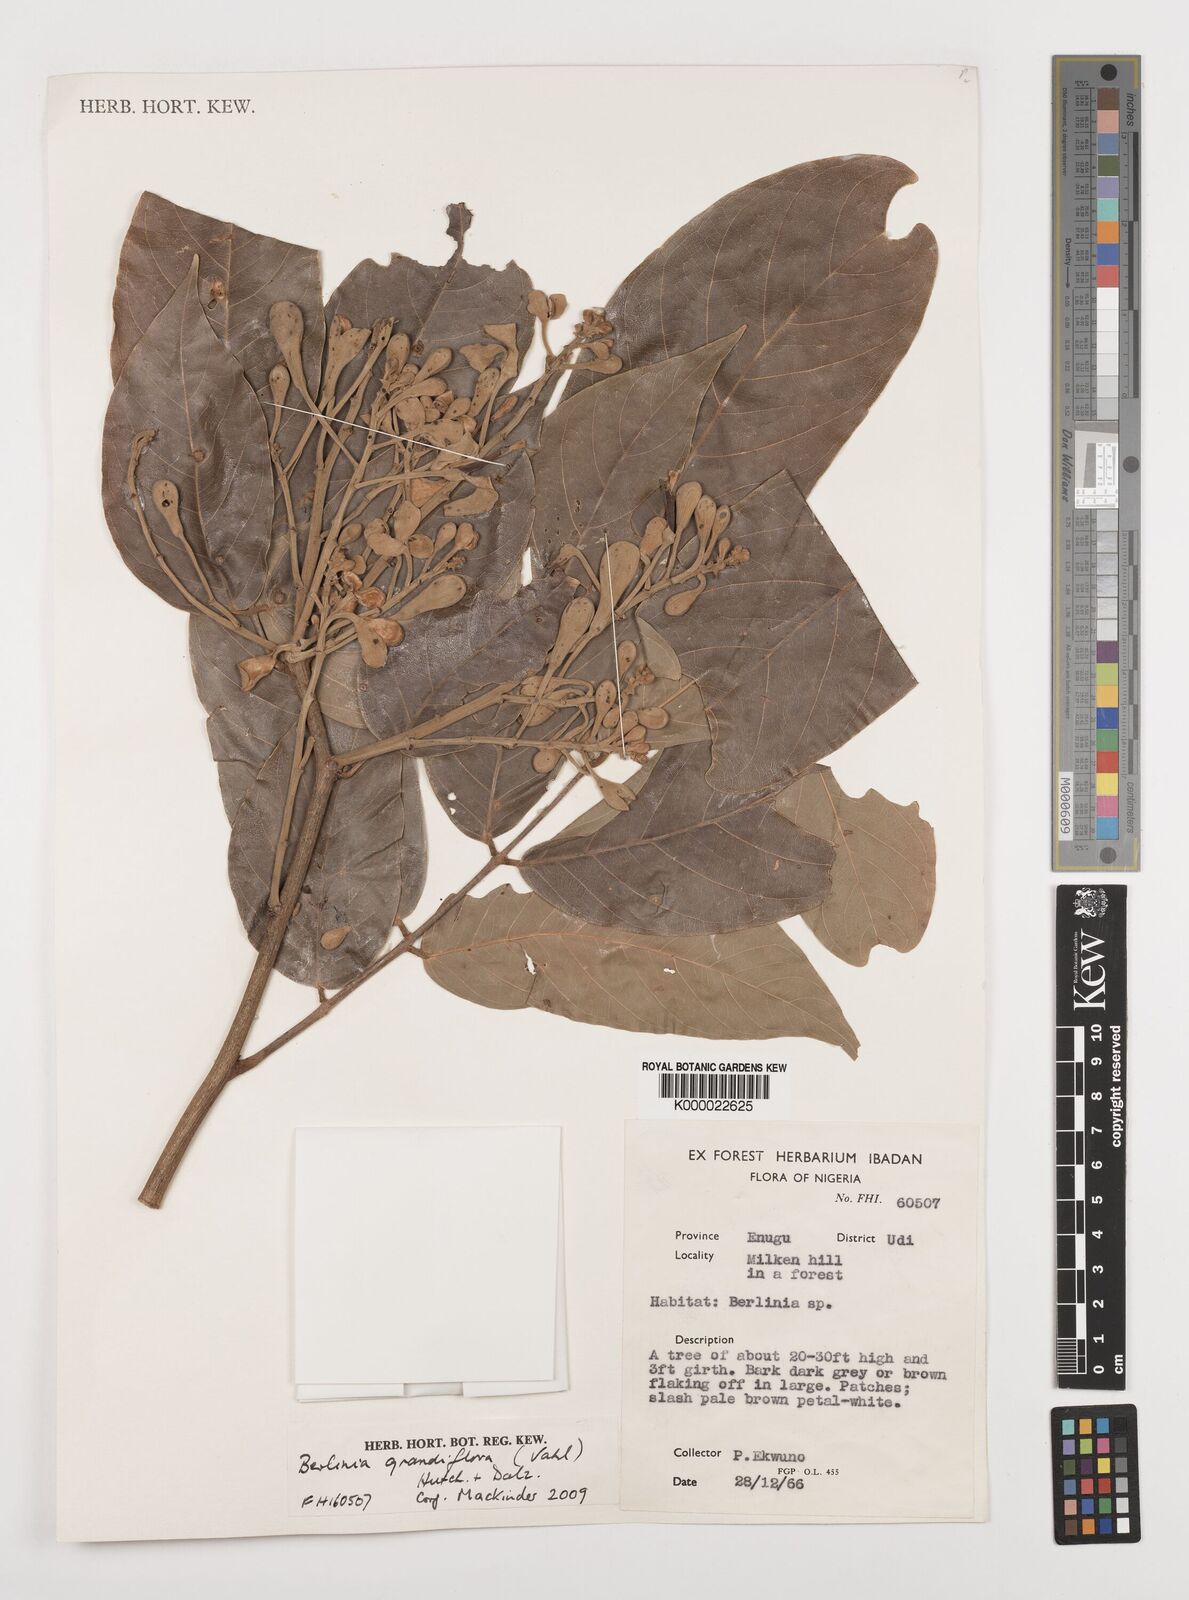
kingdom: Plantae
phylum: Tracheophyta
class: Magnoliopsida
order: Fabales
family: Fabaceae
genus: Berlinia
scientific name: Berlinia grandiflora
